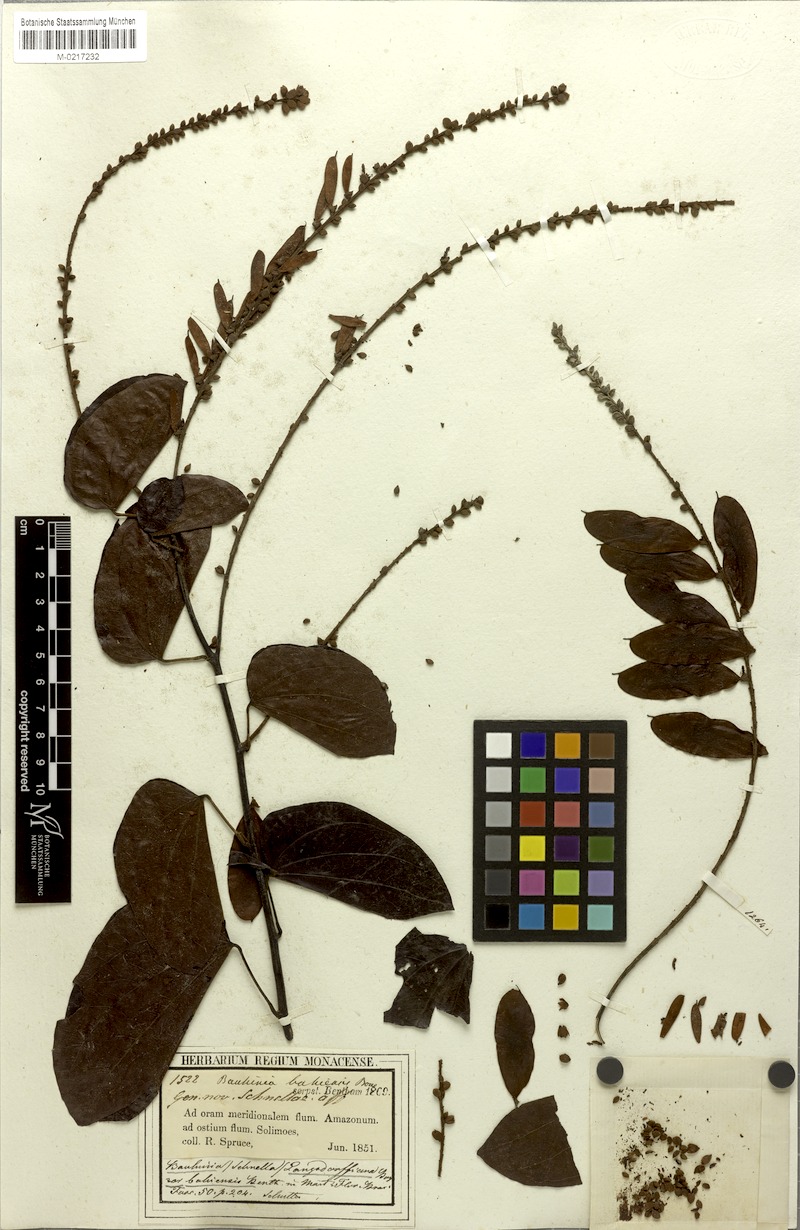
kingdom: Plantae
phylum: Tracheophyta
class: Magnoliopsida
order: Fabales
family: Fabaceae
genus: Schnella
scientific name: Schnella microstachya
